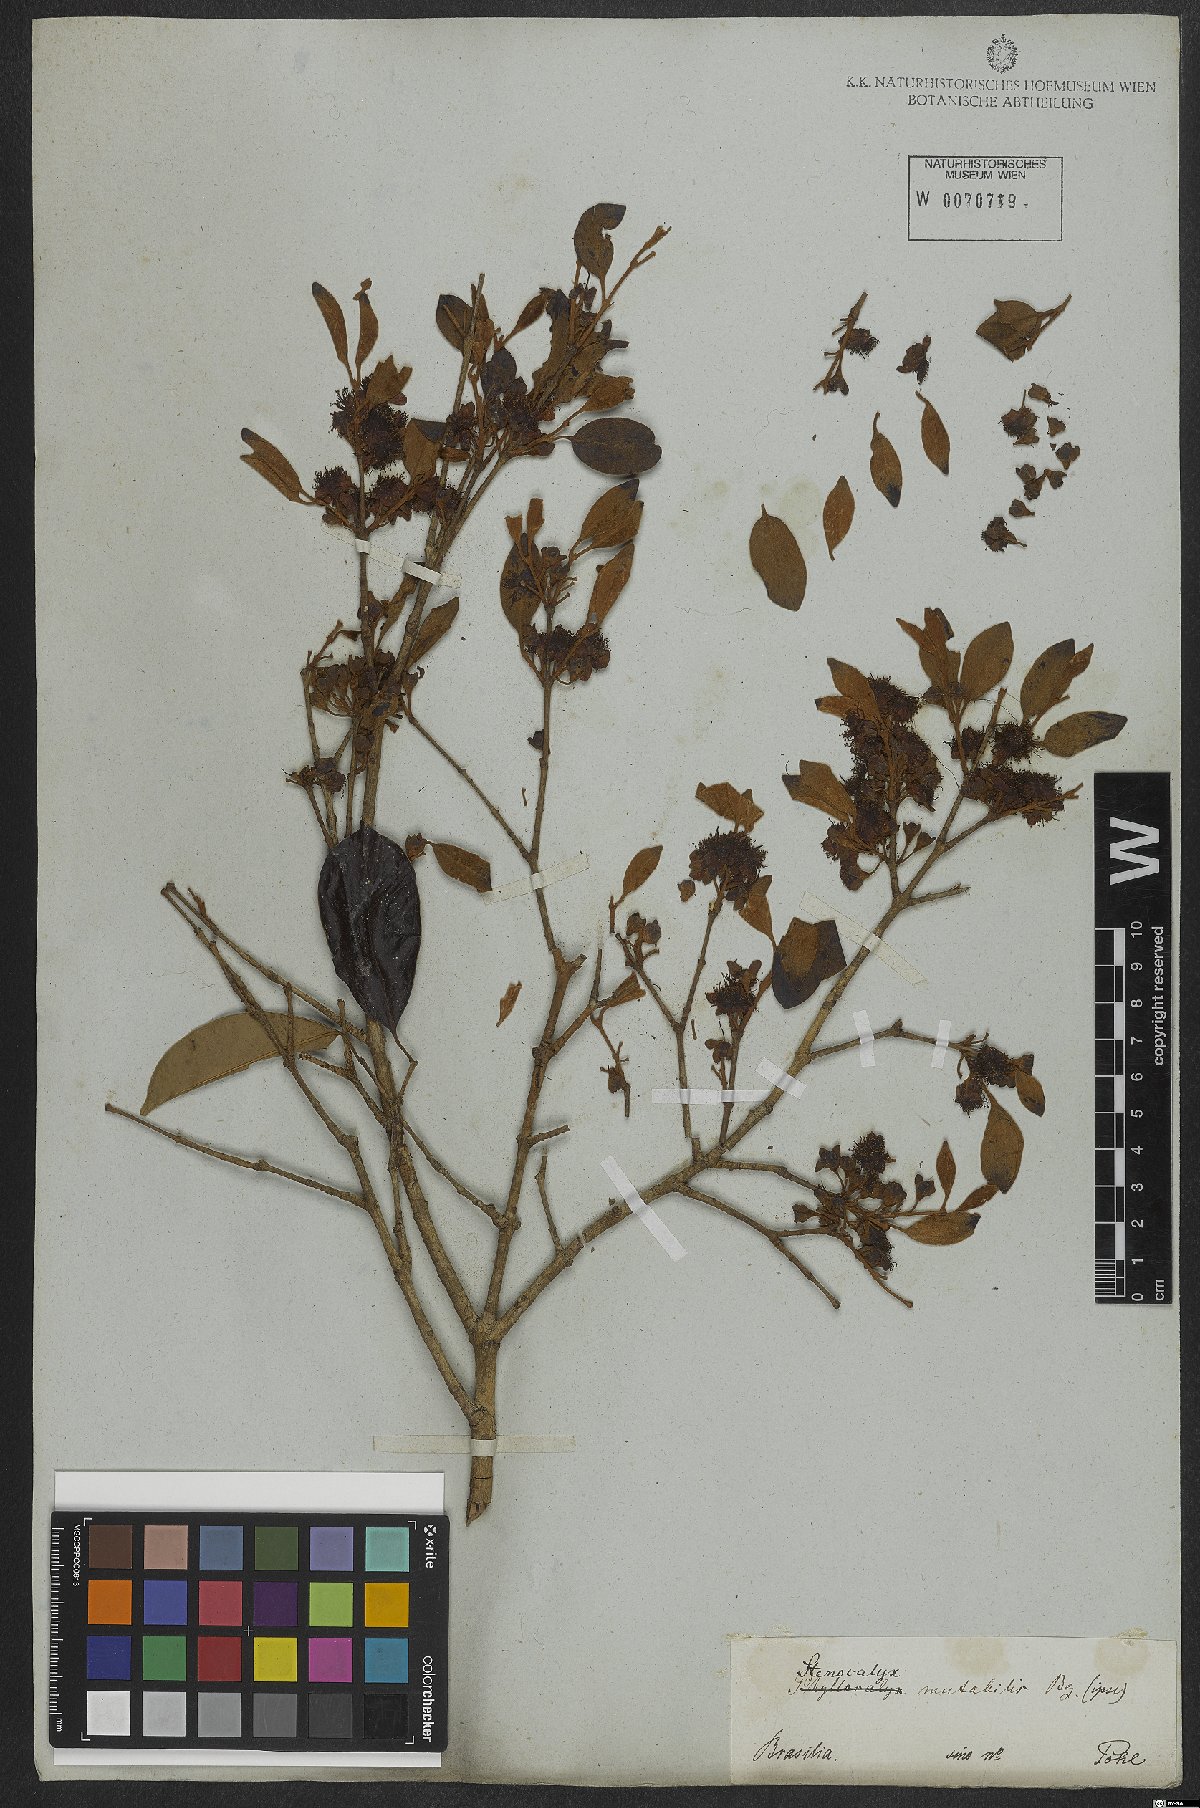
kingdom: Plantae
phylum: Tracheophyta
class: Magnoliopsida
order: Myrtales
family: Myrtaceae
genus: Pimenta
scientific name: Pimenta pseudocaryophyllus
